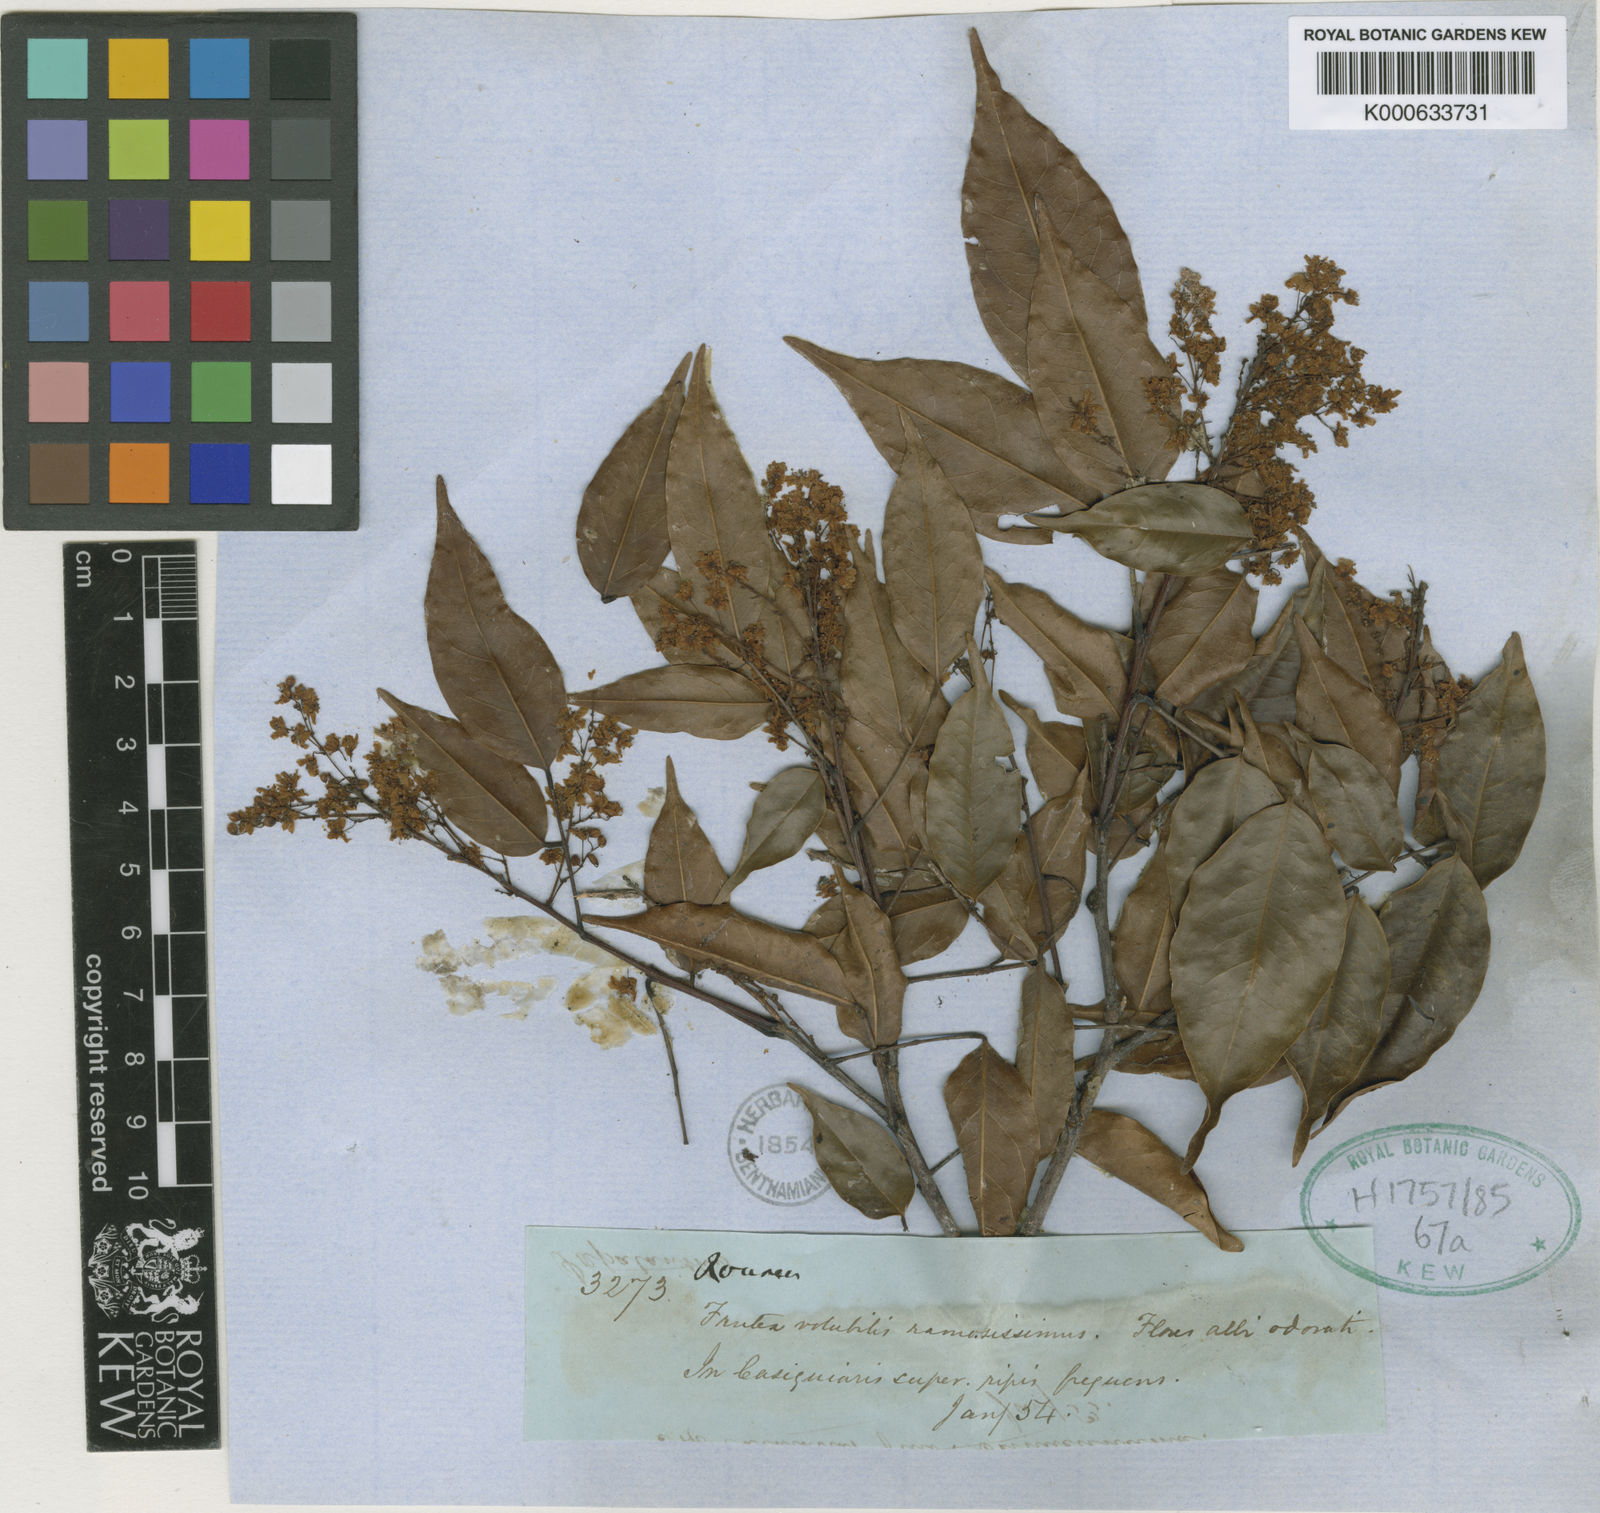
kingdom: Plantae
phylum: Tracheophyta
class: Magnoliopsida
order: Oxalidales
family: Connaraceae
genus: Rourea
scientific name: Rourea cuspidata
